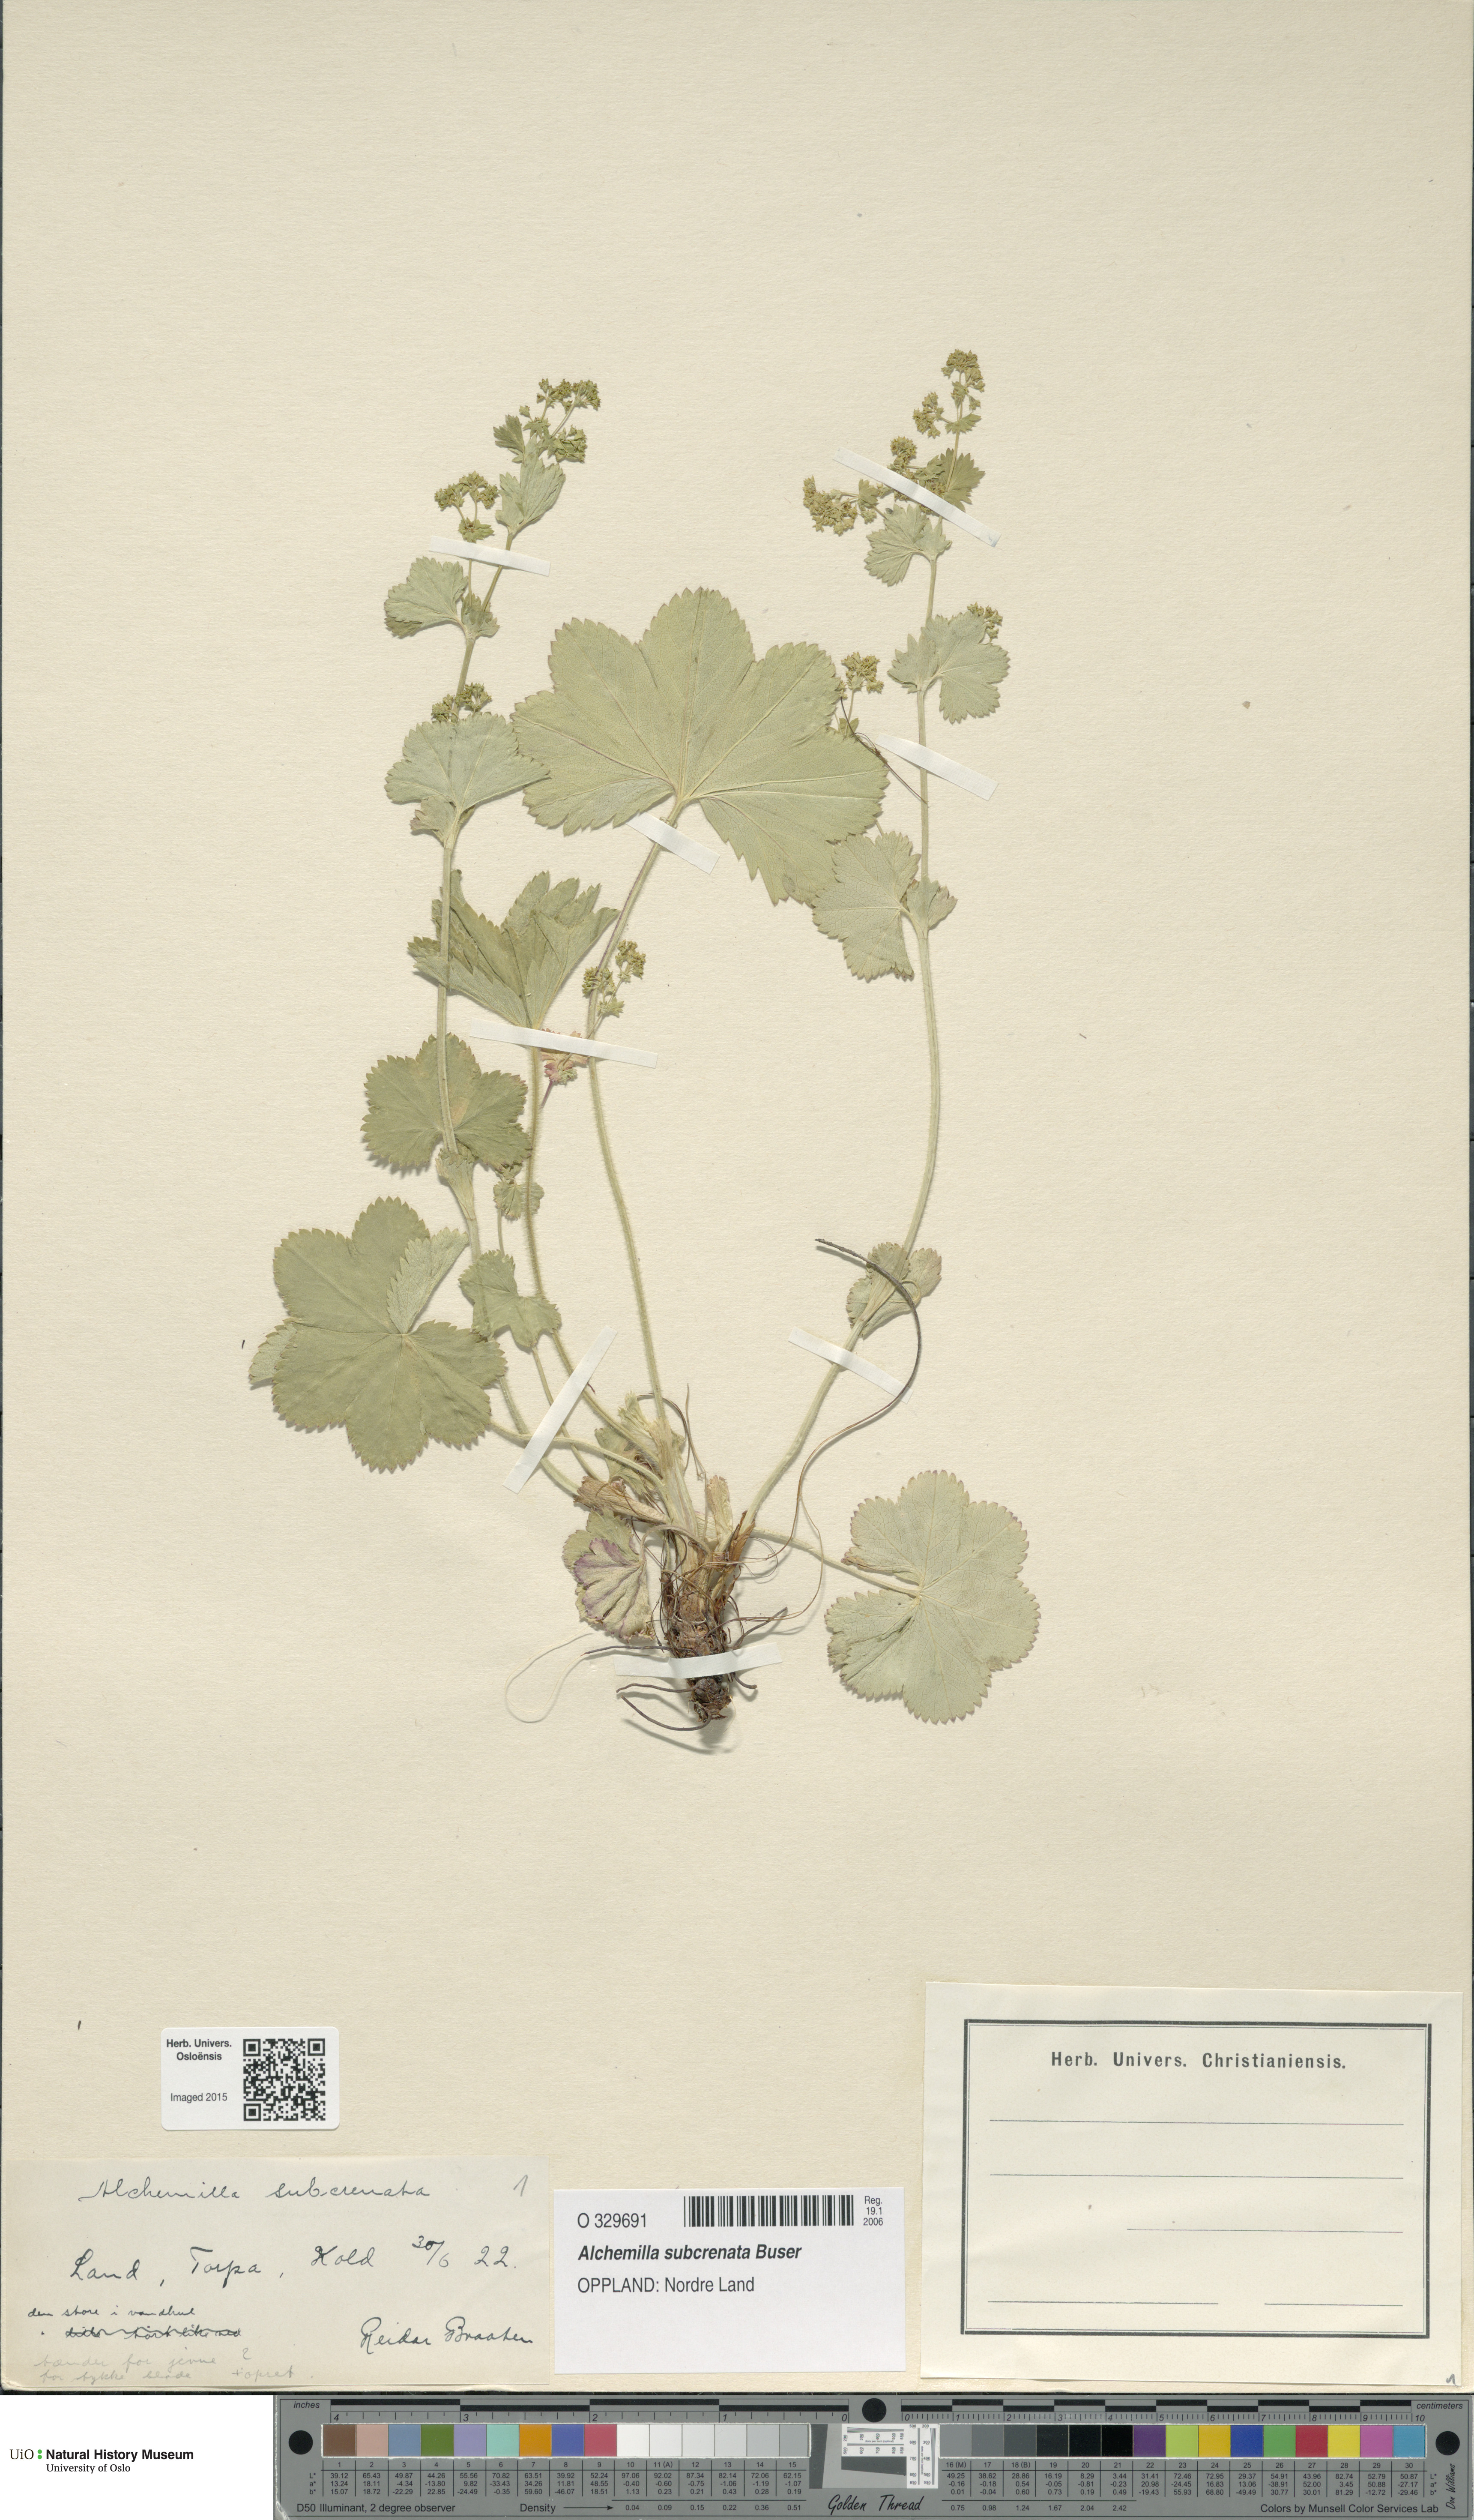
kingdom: Plantae
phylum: Tracheophyta
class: Magnoliopsida
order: Rosales
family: Rosaceae
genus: Alchemilla
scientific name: Alchemilla subcrenata
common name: Broadtooth lady's mantle
